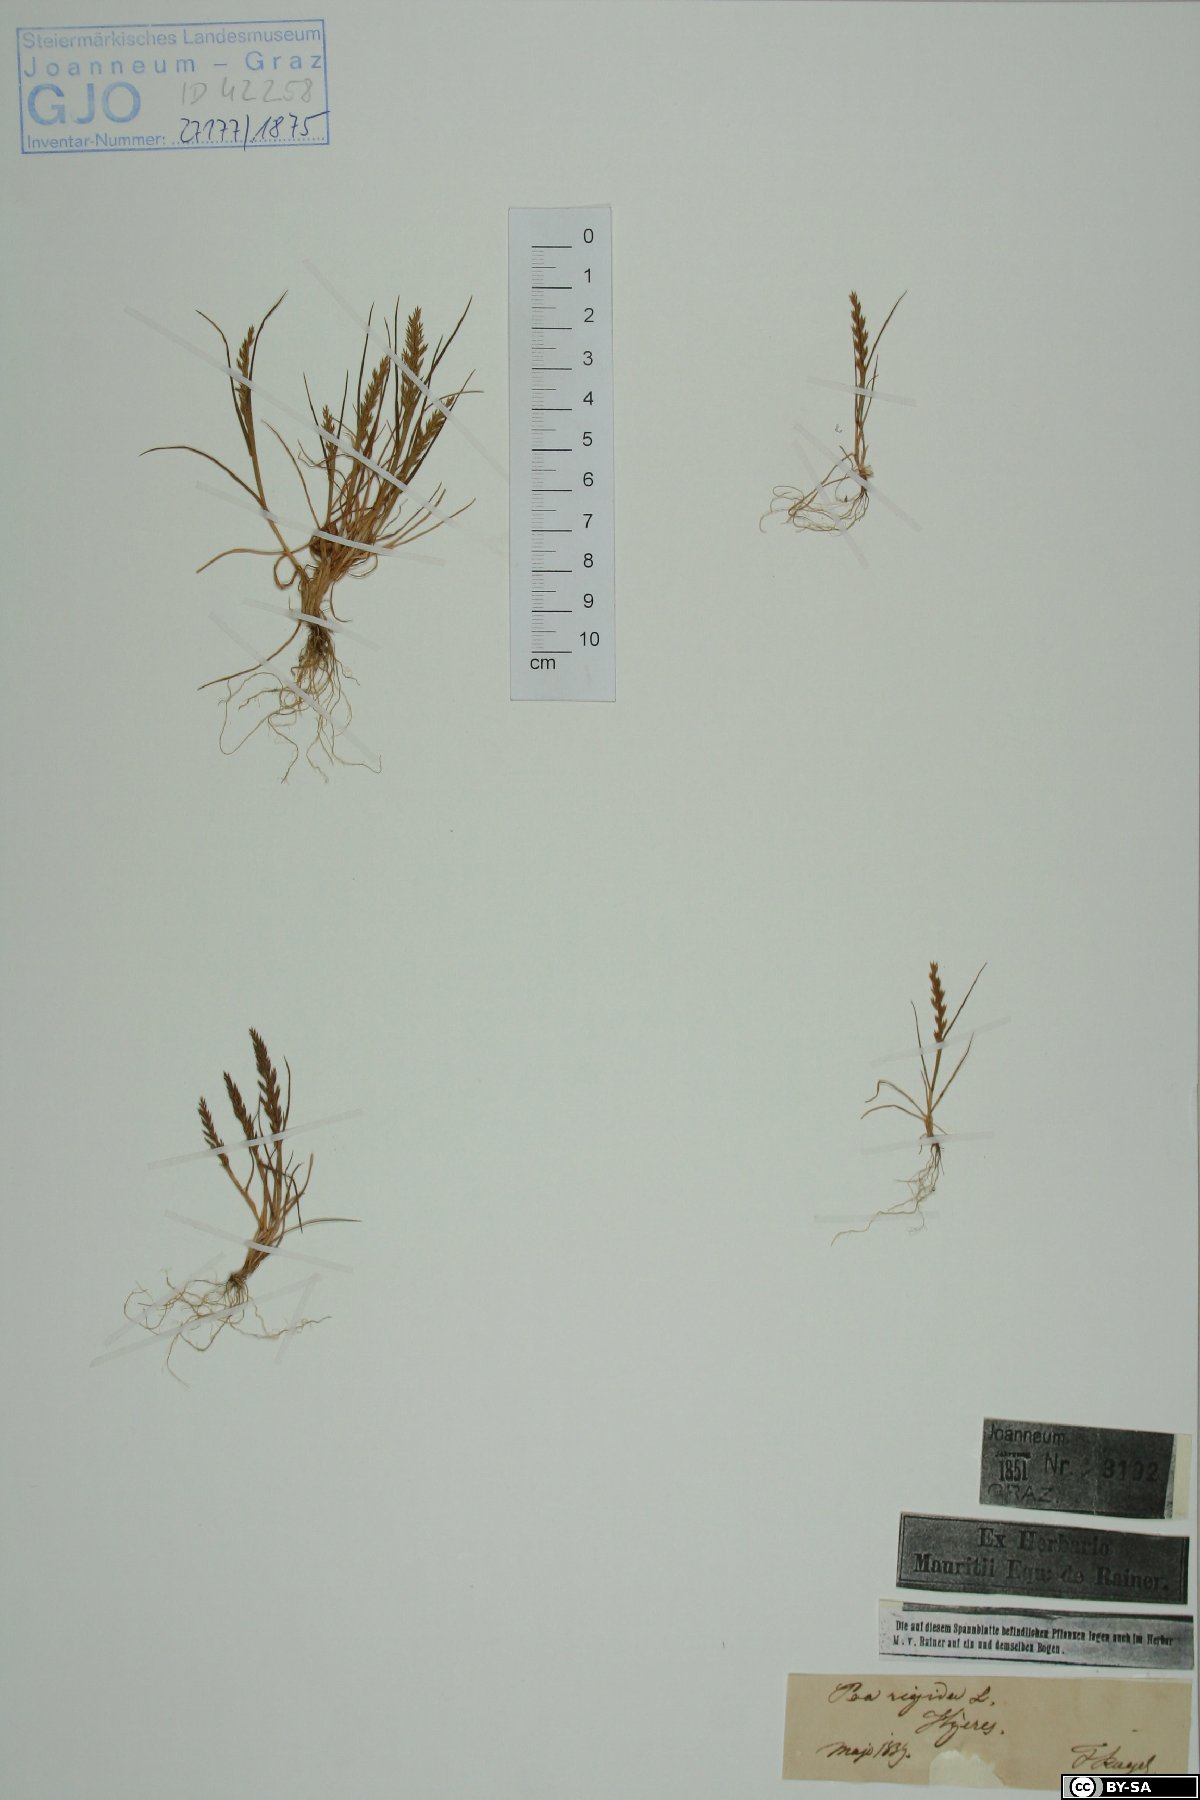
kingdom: Plantae
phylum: Tracheophyta
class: Liliopsida
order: Poales
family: Poaceae
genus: Catapodium
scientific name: Catapodium rigidum
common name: Fern-grass
